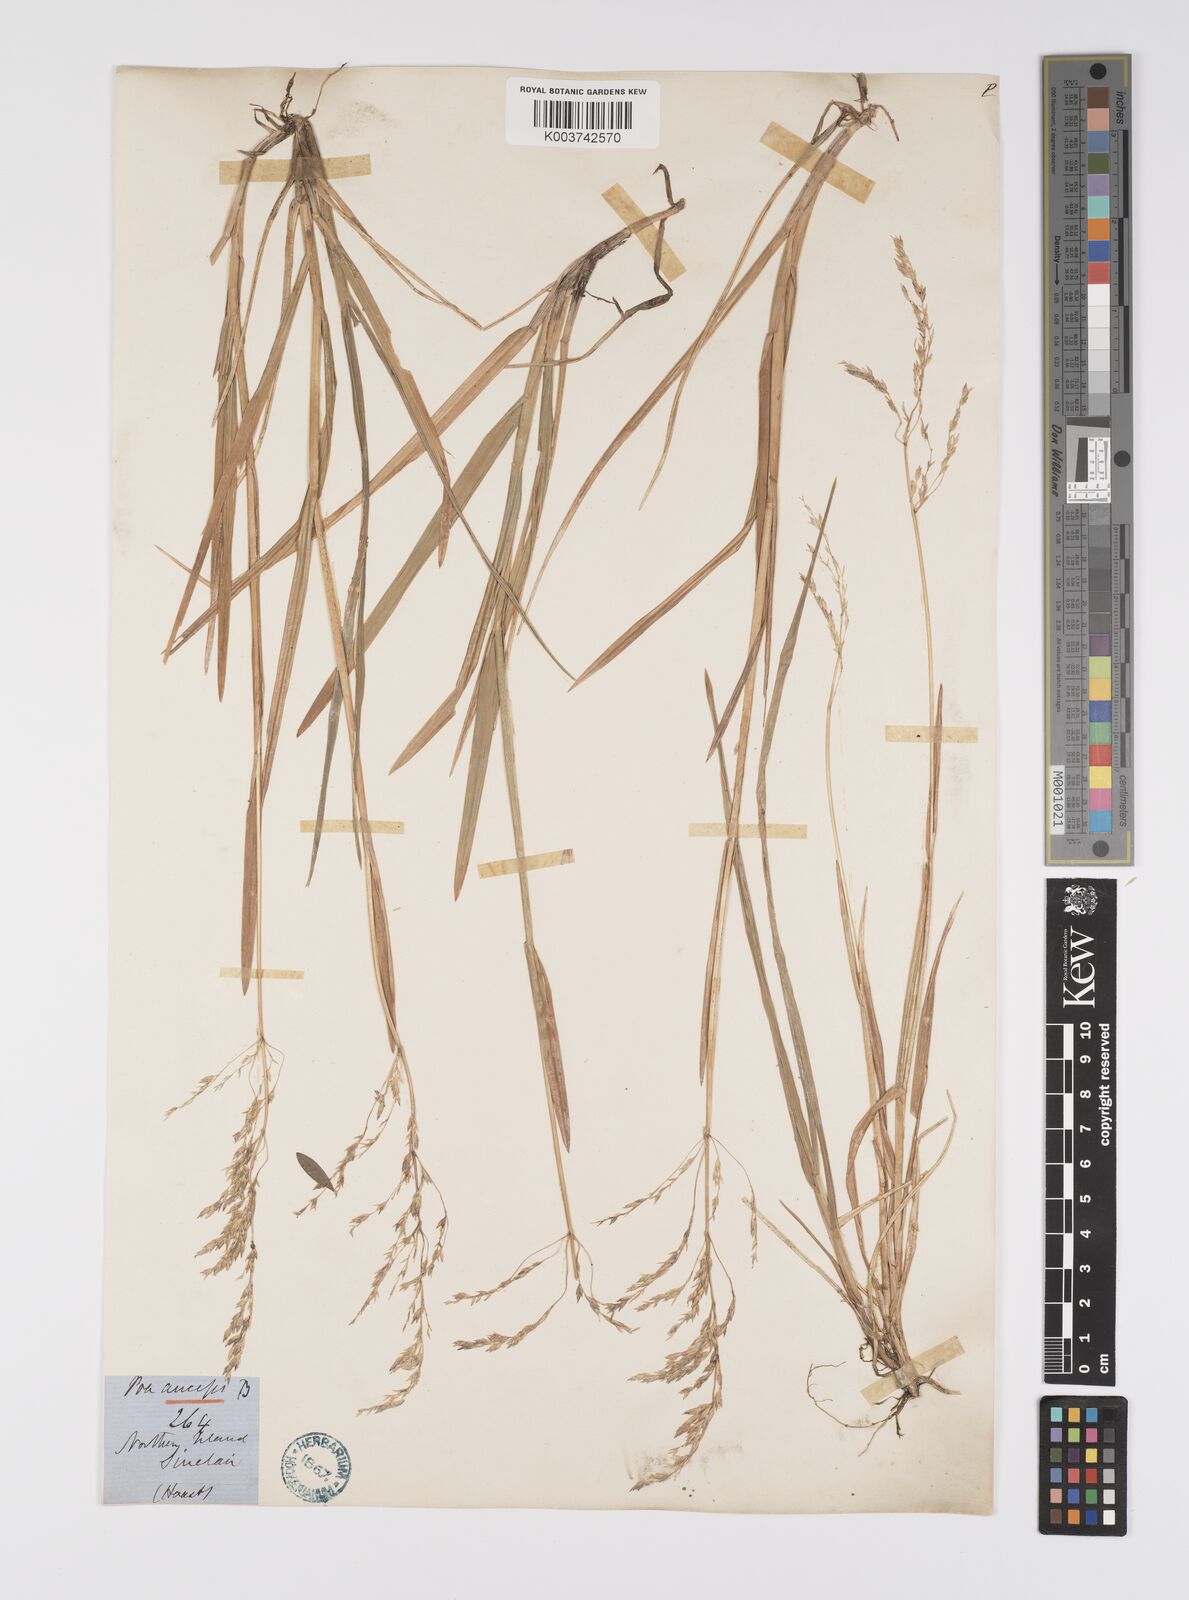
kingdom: Plantae
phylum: Tracheophyta
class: Liliopsida
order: Poales
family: Poaceae
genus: Poa
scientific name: Poa anceps
